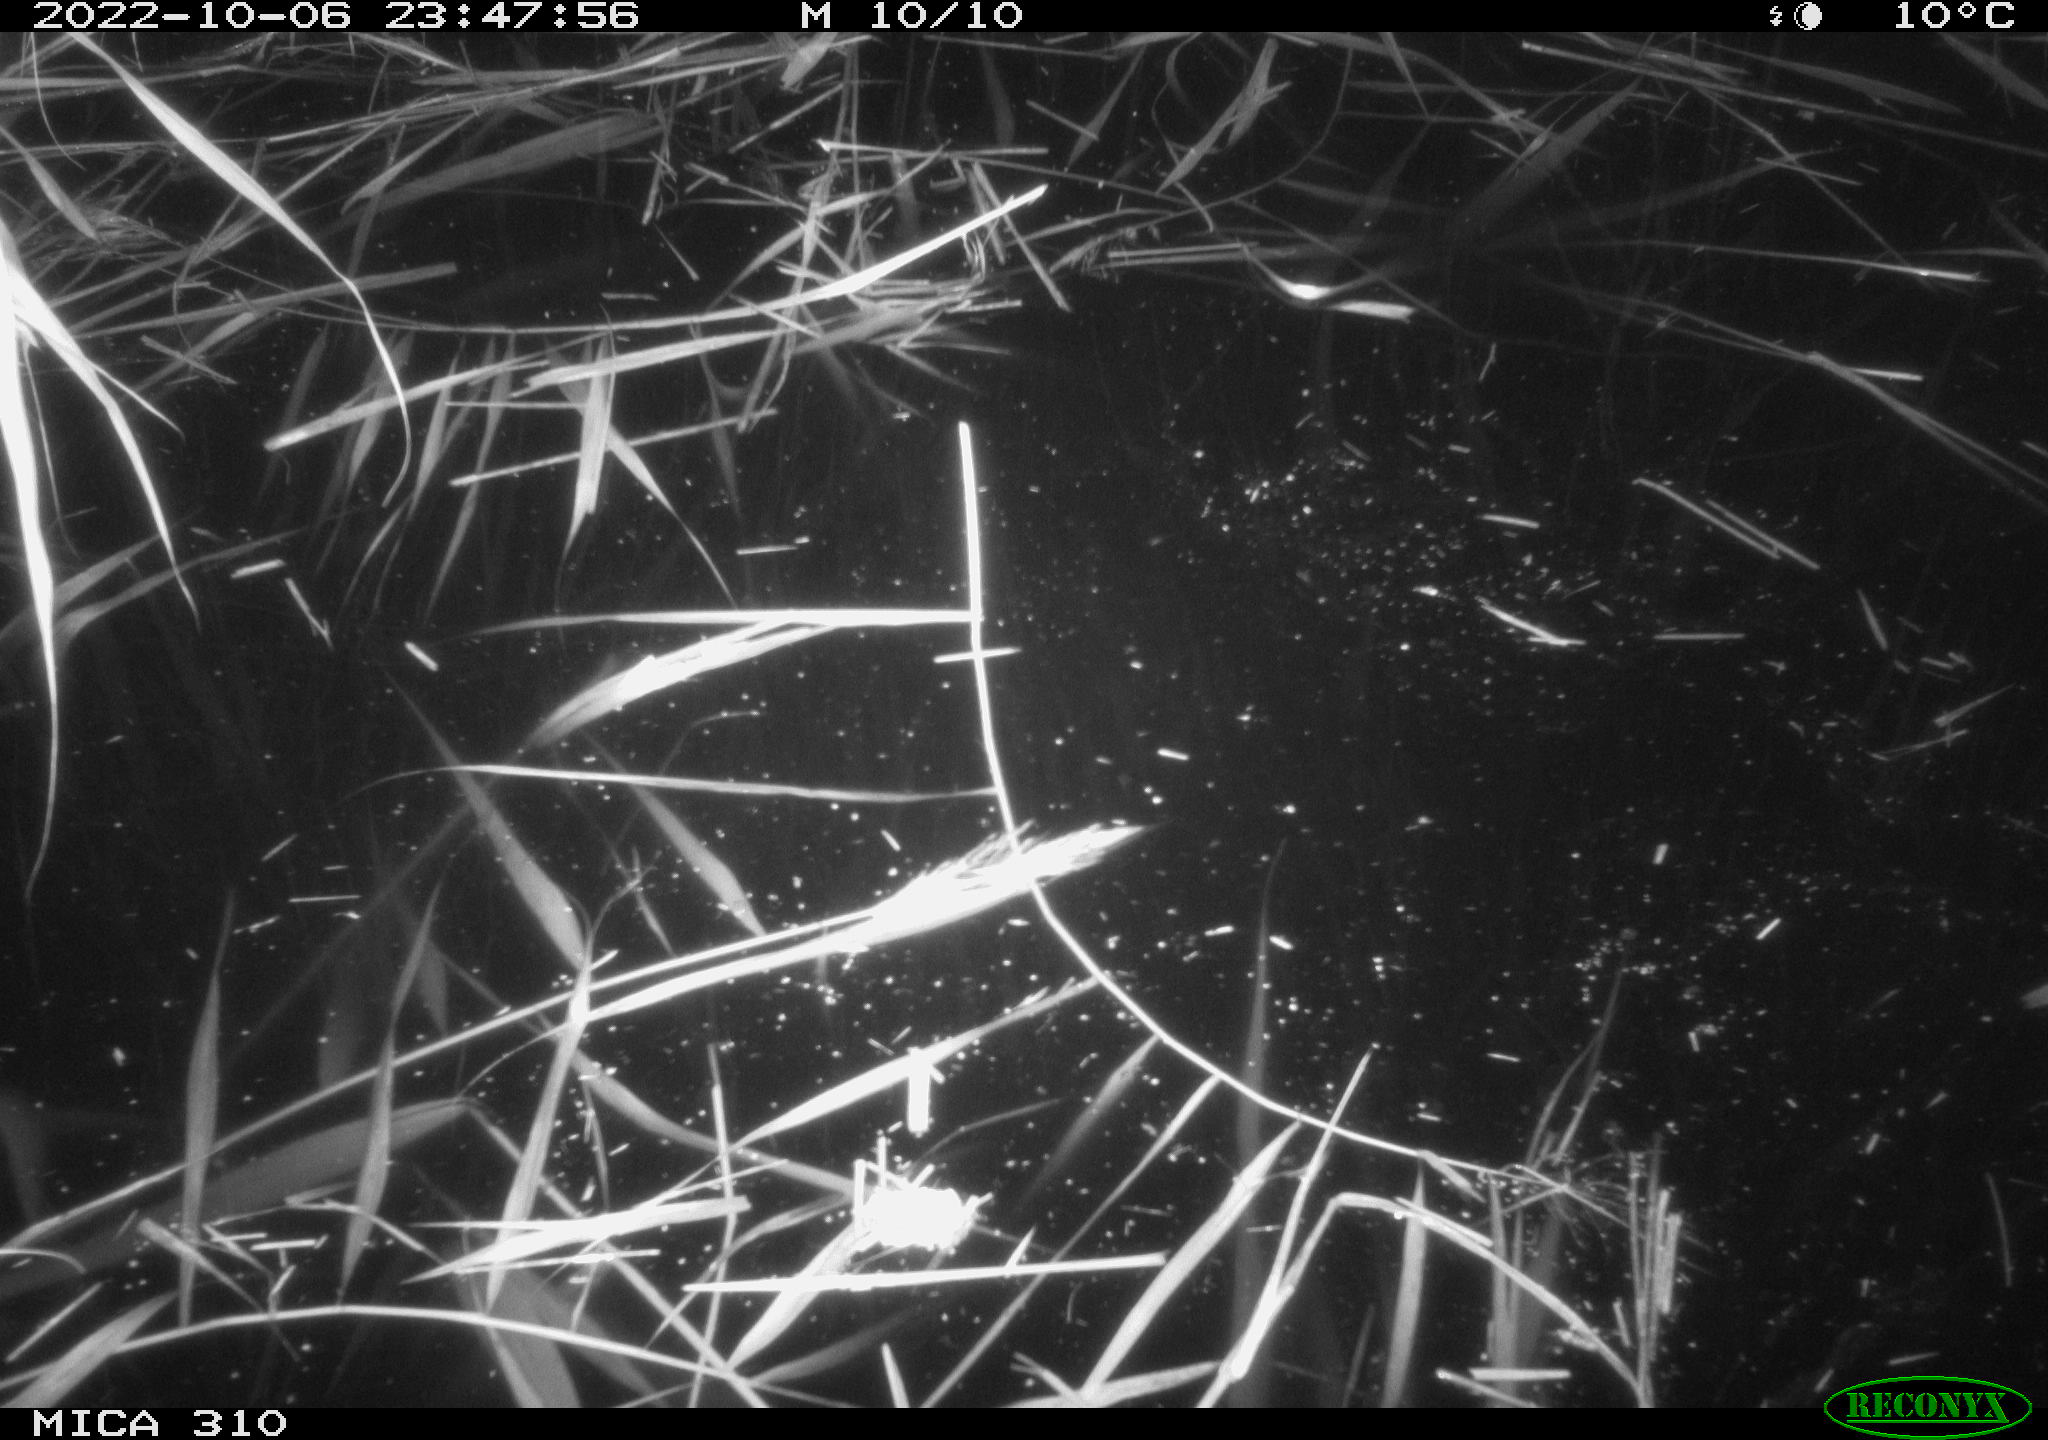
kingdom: Animalia
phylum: Chordata
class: Mammalia
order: Rodentia
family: Muridae
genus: Rattus
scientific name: Rattus norvegicus
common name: Brown rat
